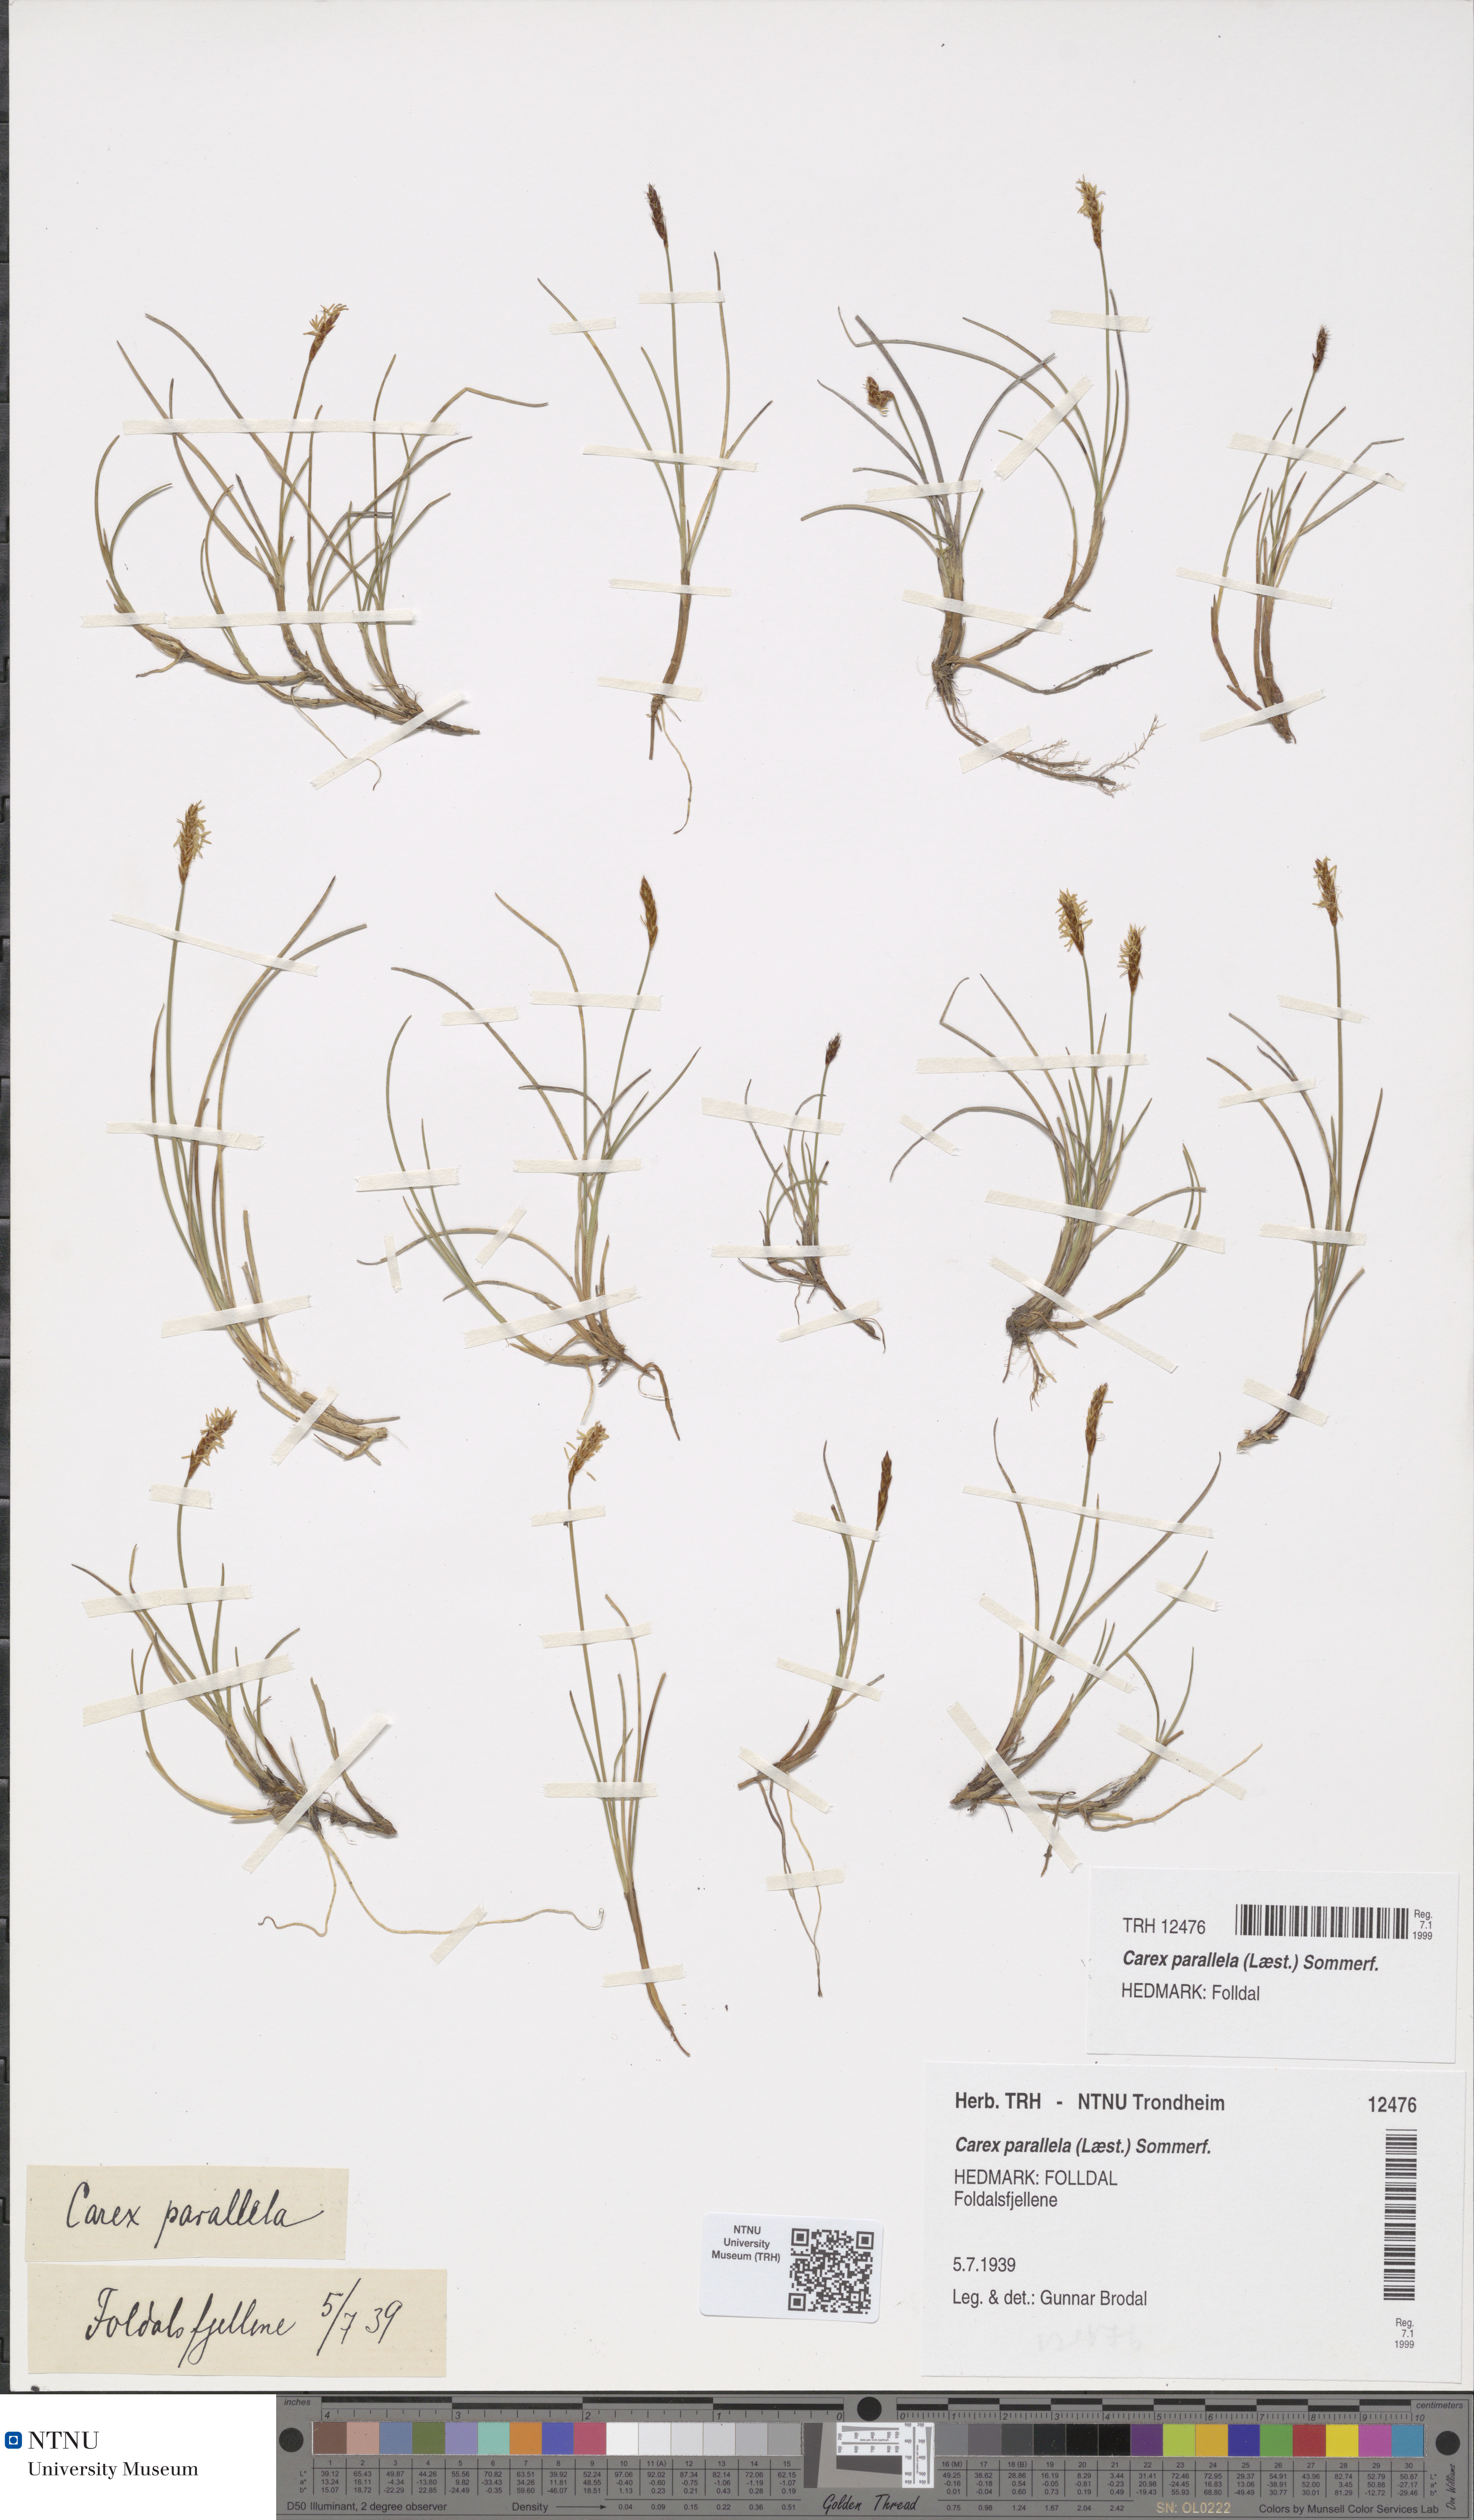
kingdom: Plantae
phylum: Tracheophyta
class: Liliopsida
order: Poales
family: Cyperaceae
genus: Carex
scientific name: Carex parallela
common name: Parallel sedge
